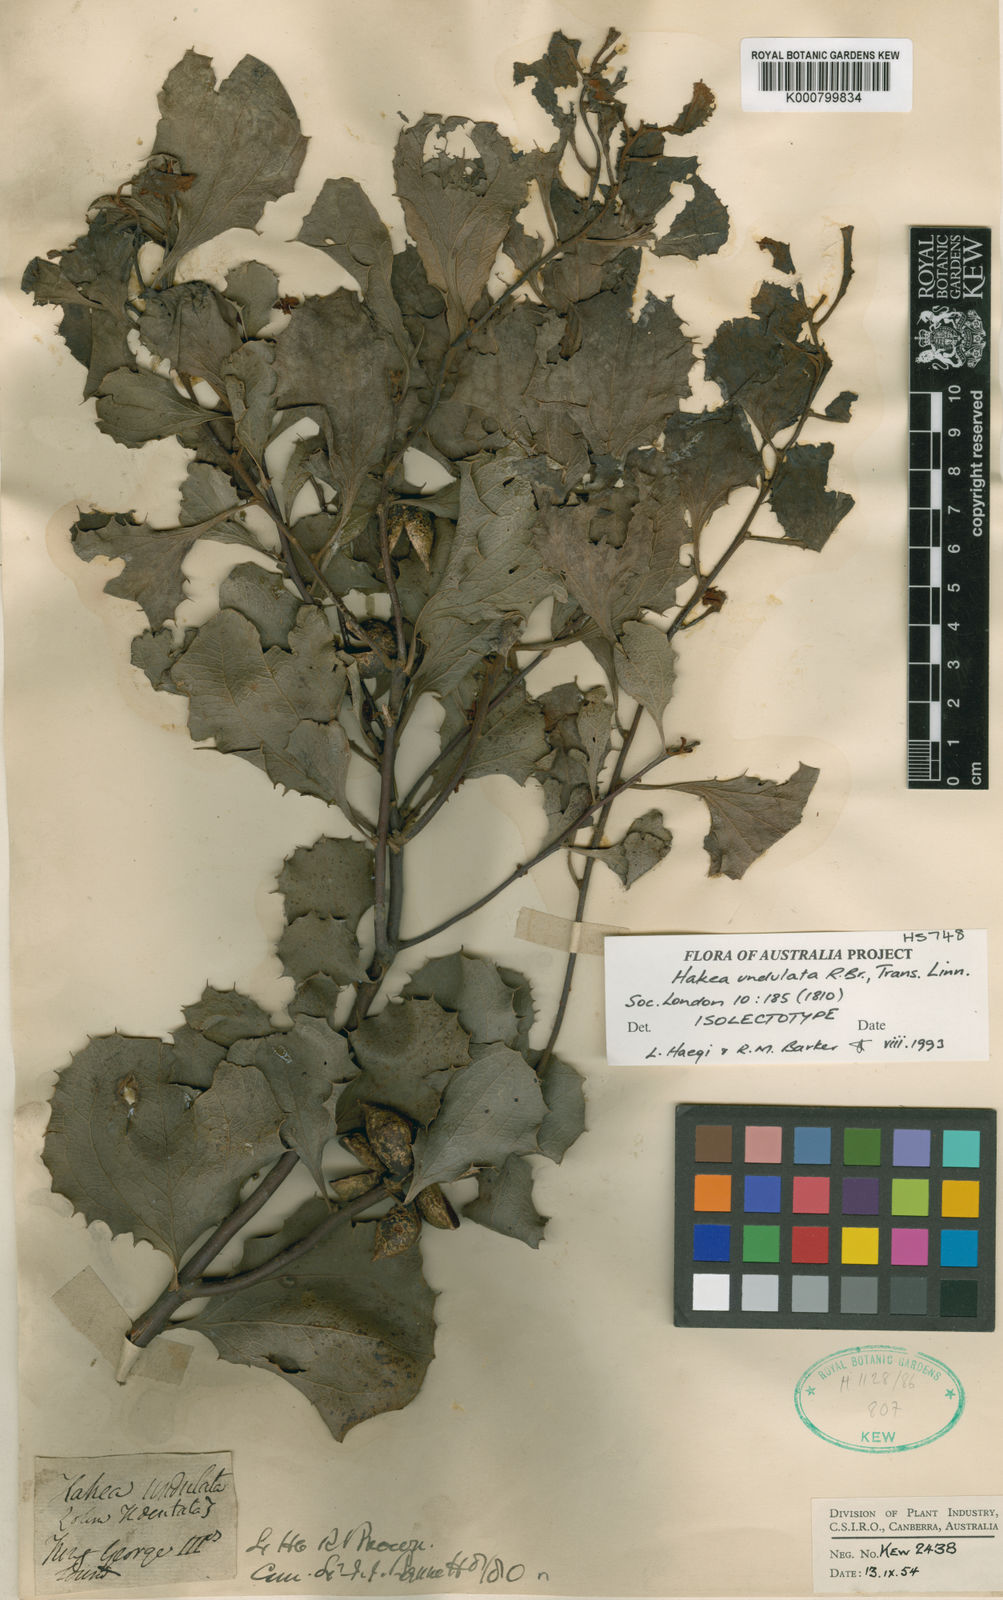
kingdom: Plantae
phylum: Tracheophyta
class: Magnoliopsida
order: Proteales
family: Proteaceae
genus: Hakea
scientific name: Hakea undulata
